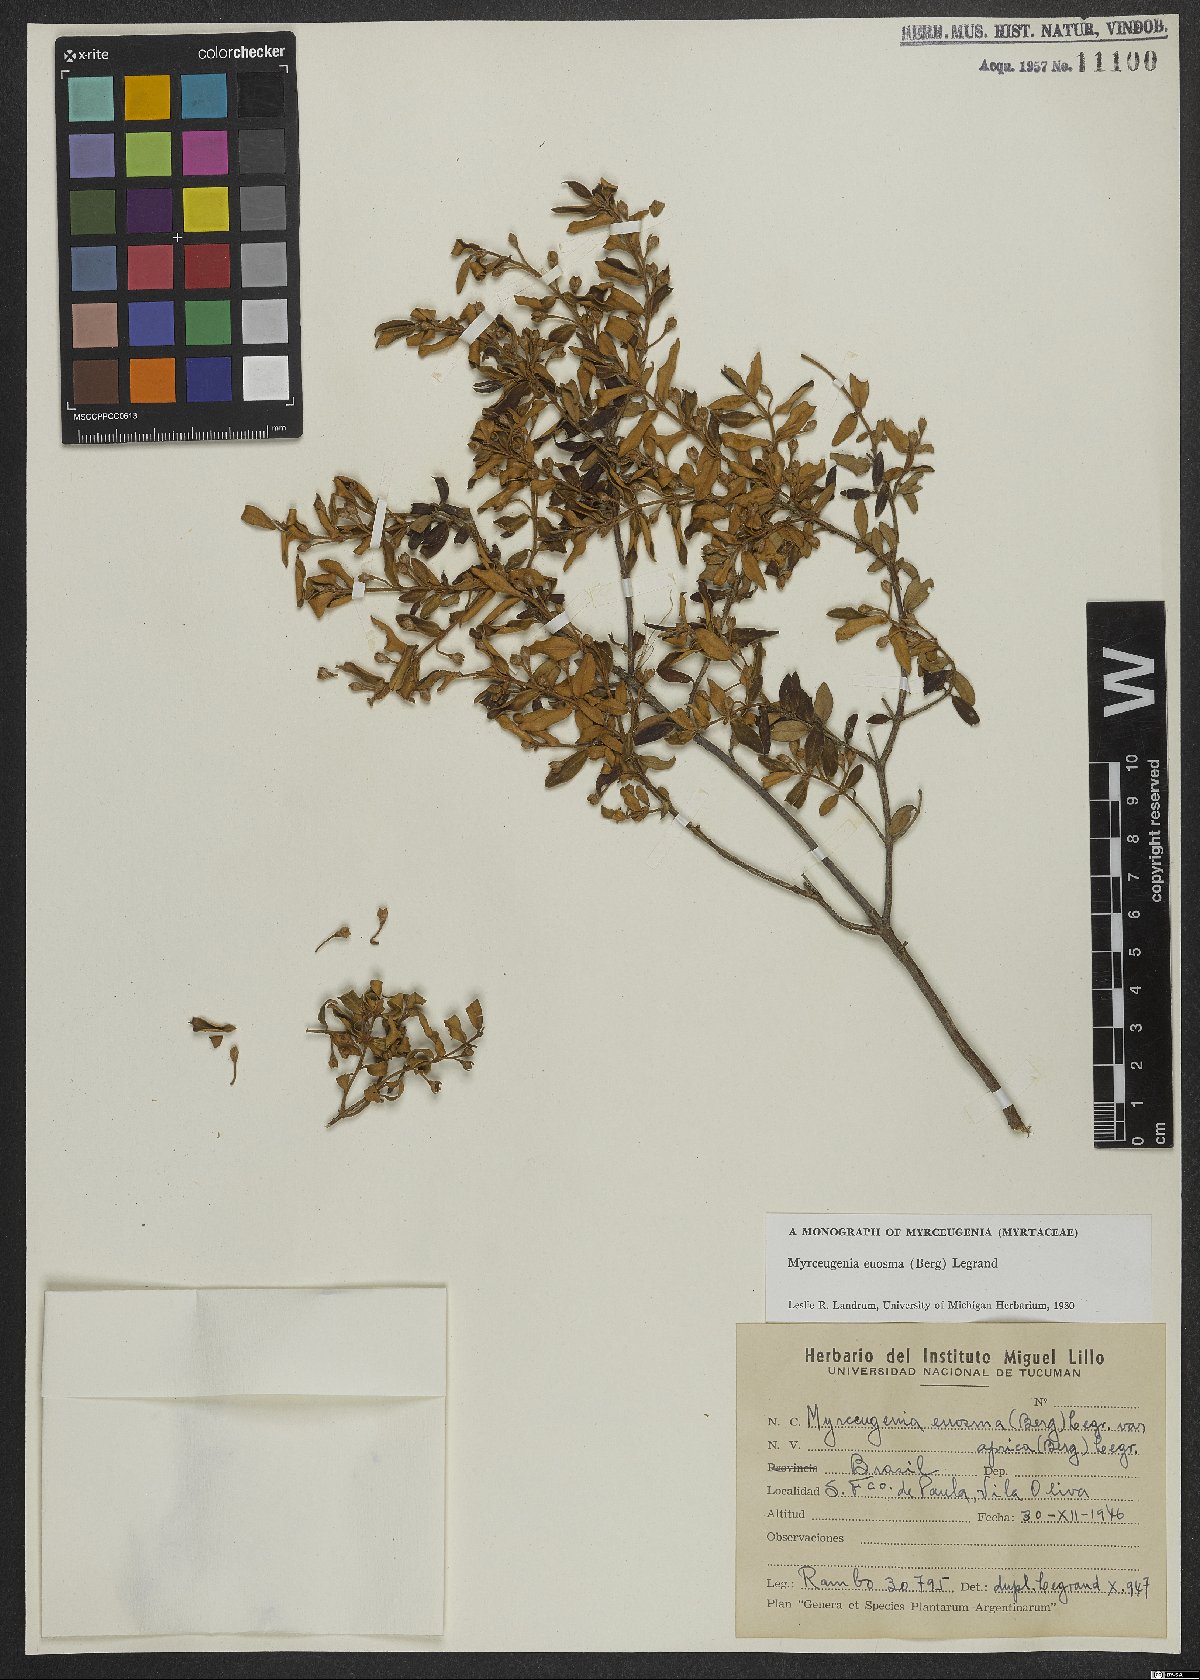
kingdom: Plantae
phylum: Tracheophyta
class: Magnoliopsida
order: Myrtales
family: Myrtaceae
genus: Myrceugenia
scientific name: Myrceugenia euosma
